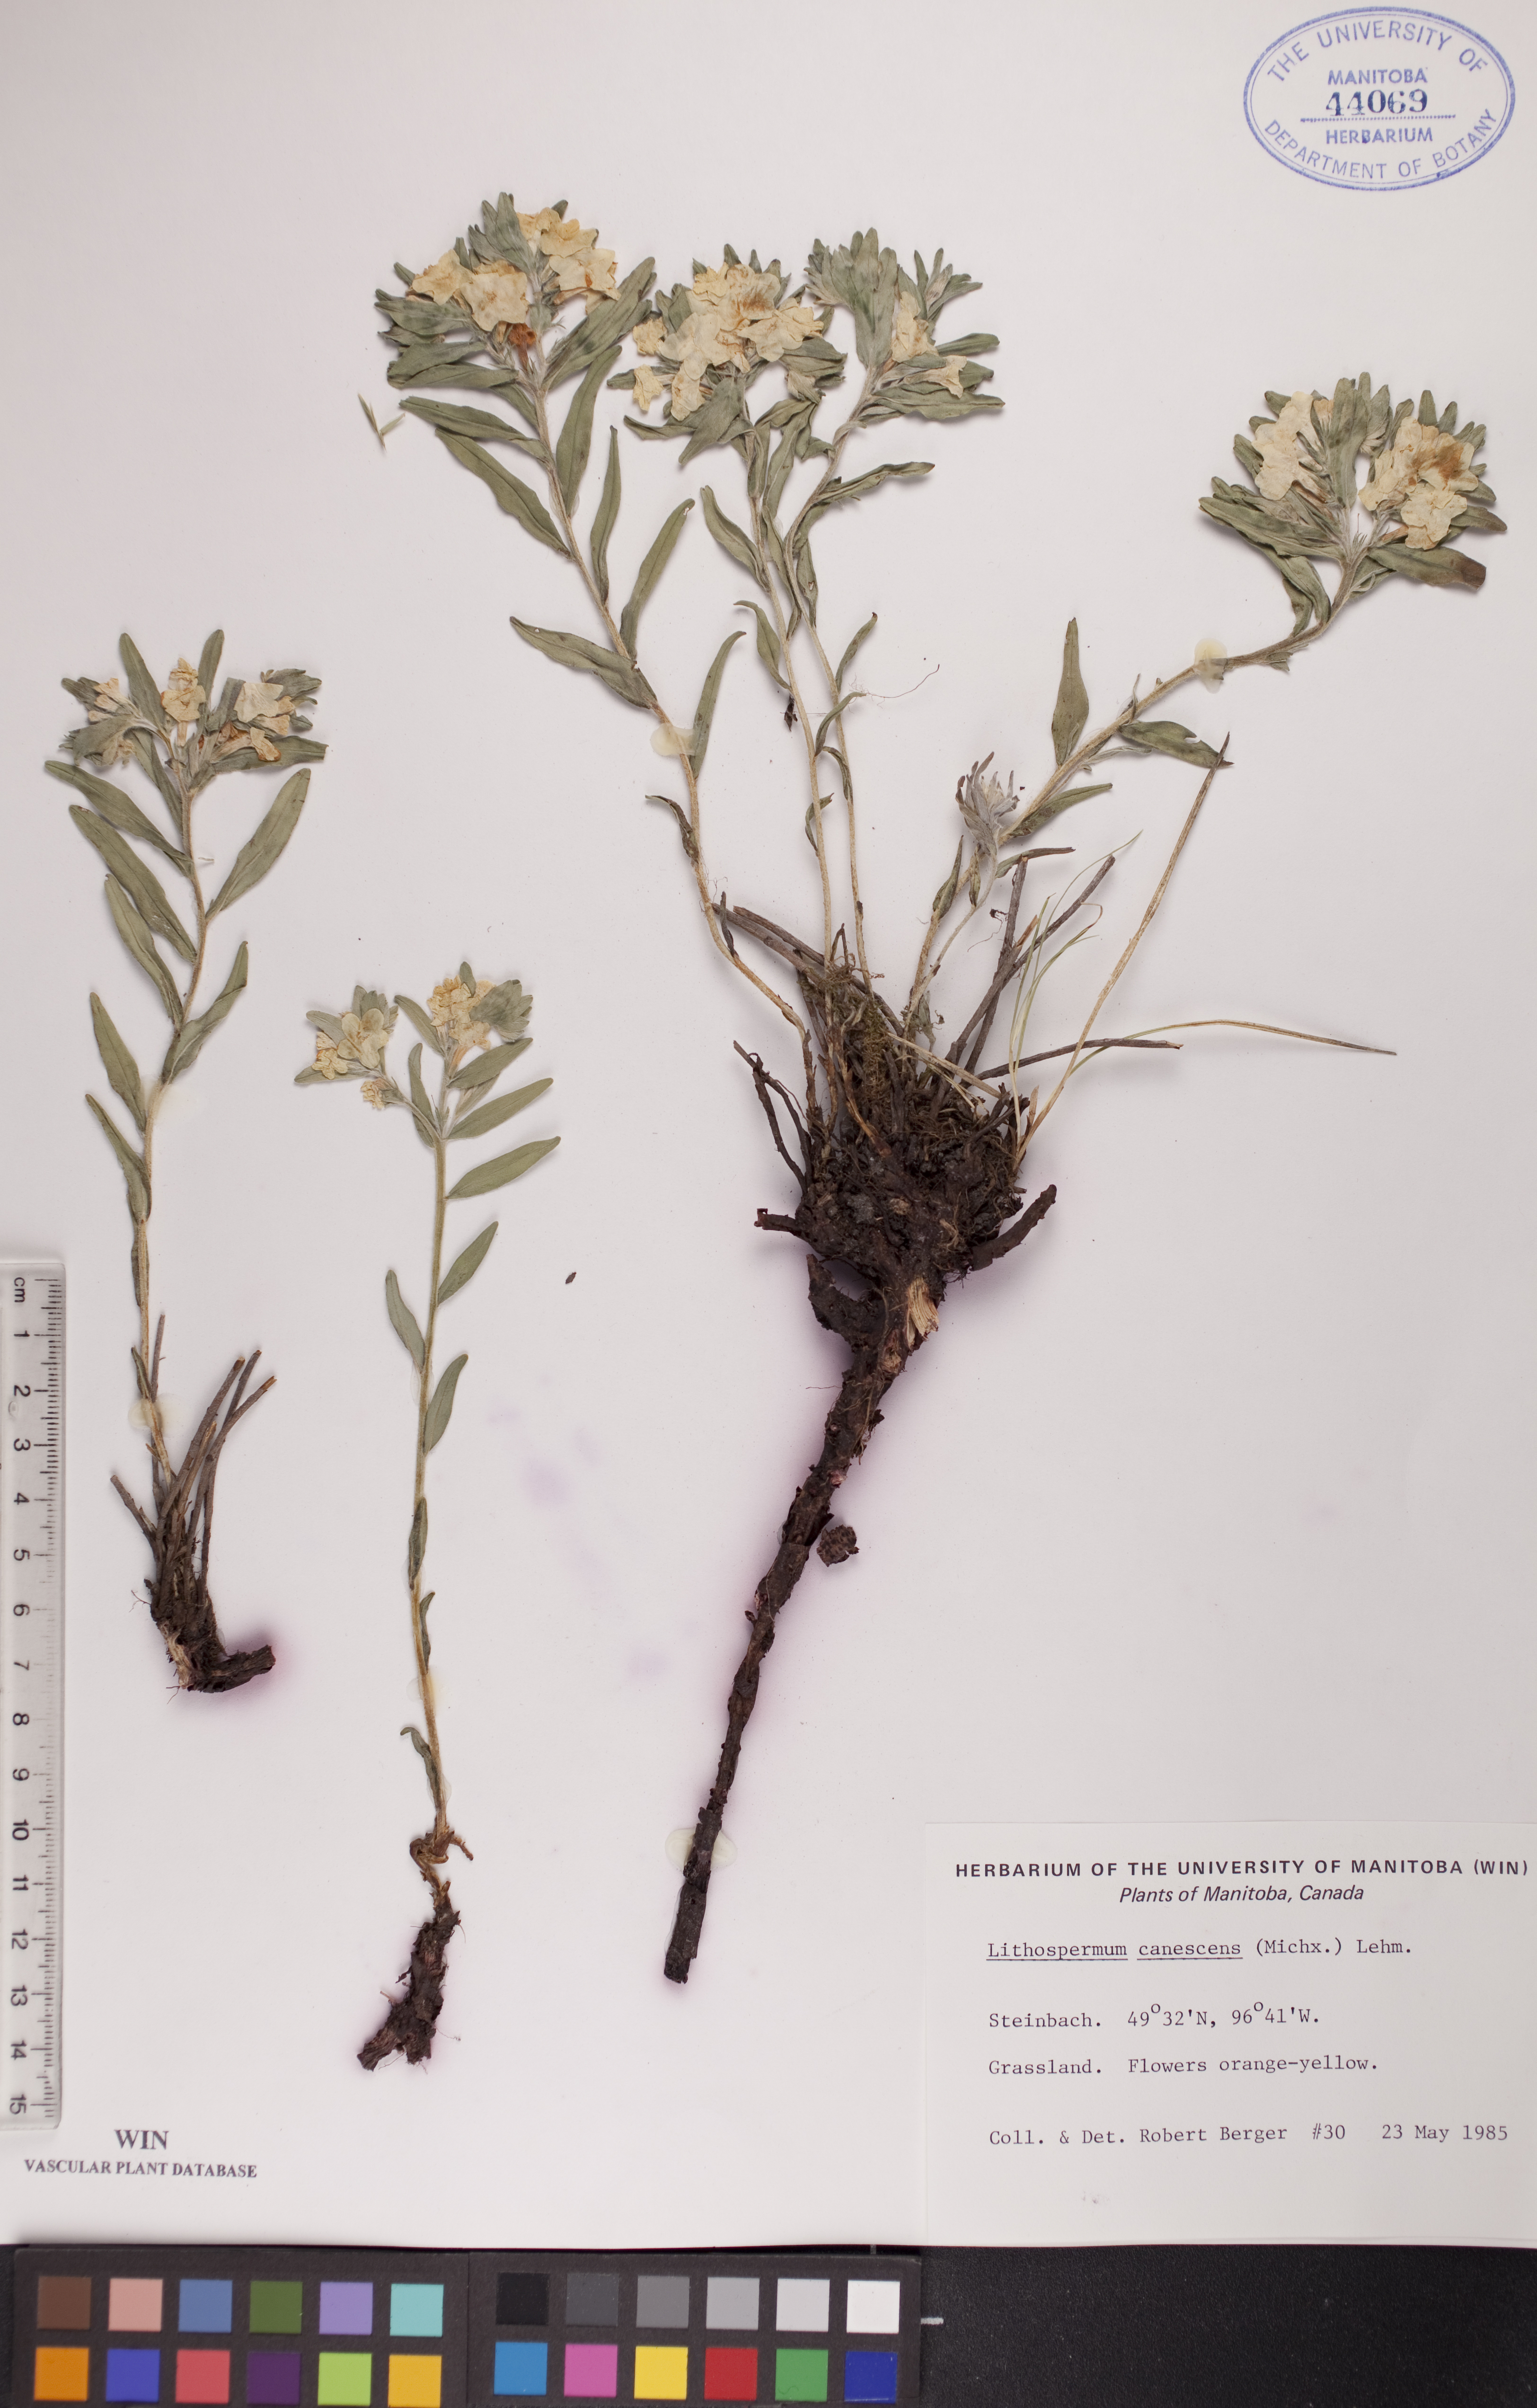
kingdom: Plantae
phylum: Tracheophyta
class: Magnoliopsida
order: Boraginales
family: Boraginaceae
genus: Lithospermum
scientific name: Lithospermum canescens
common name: Hoary puccoon
